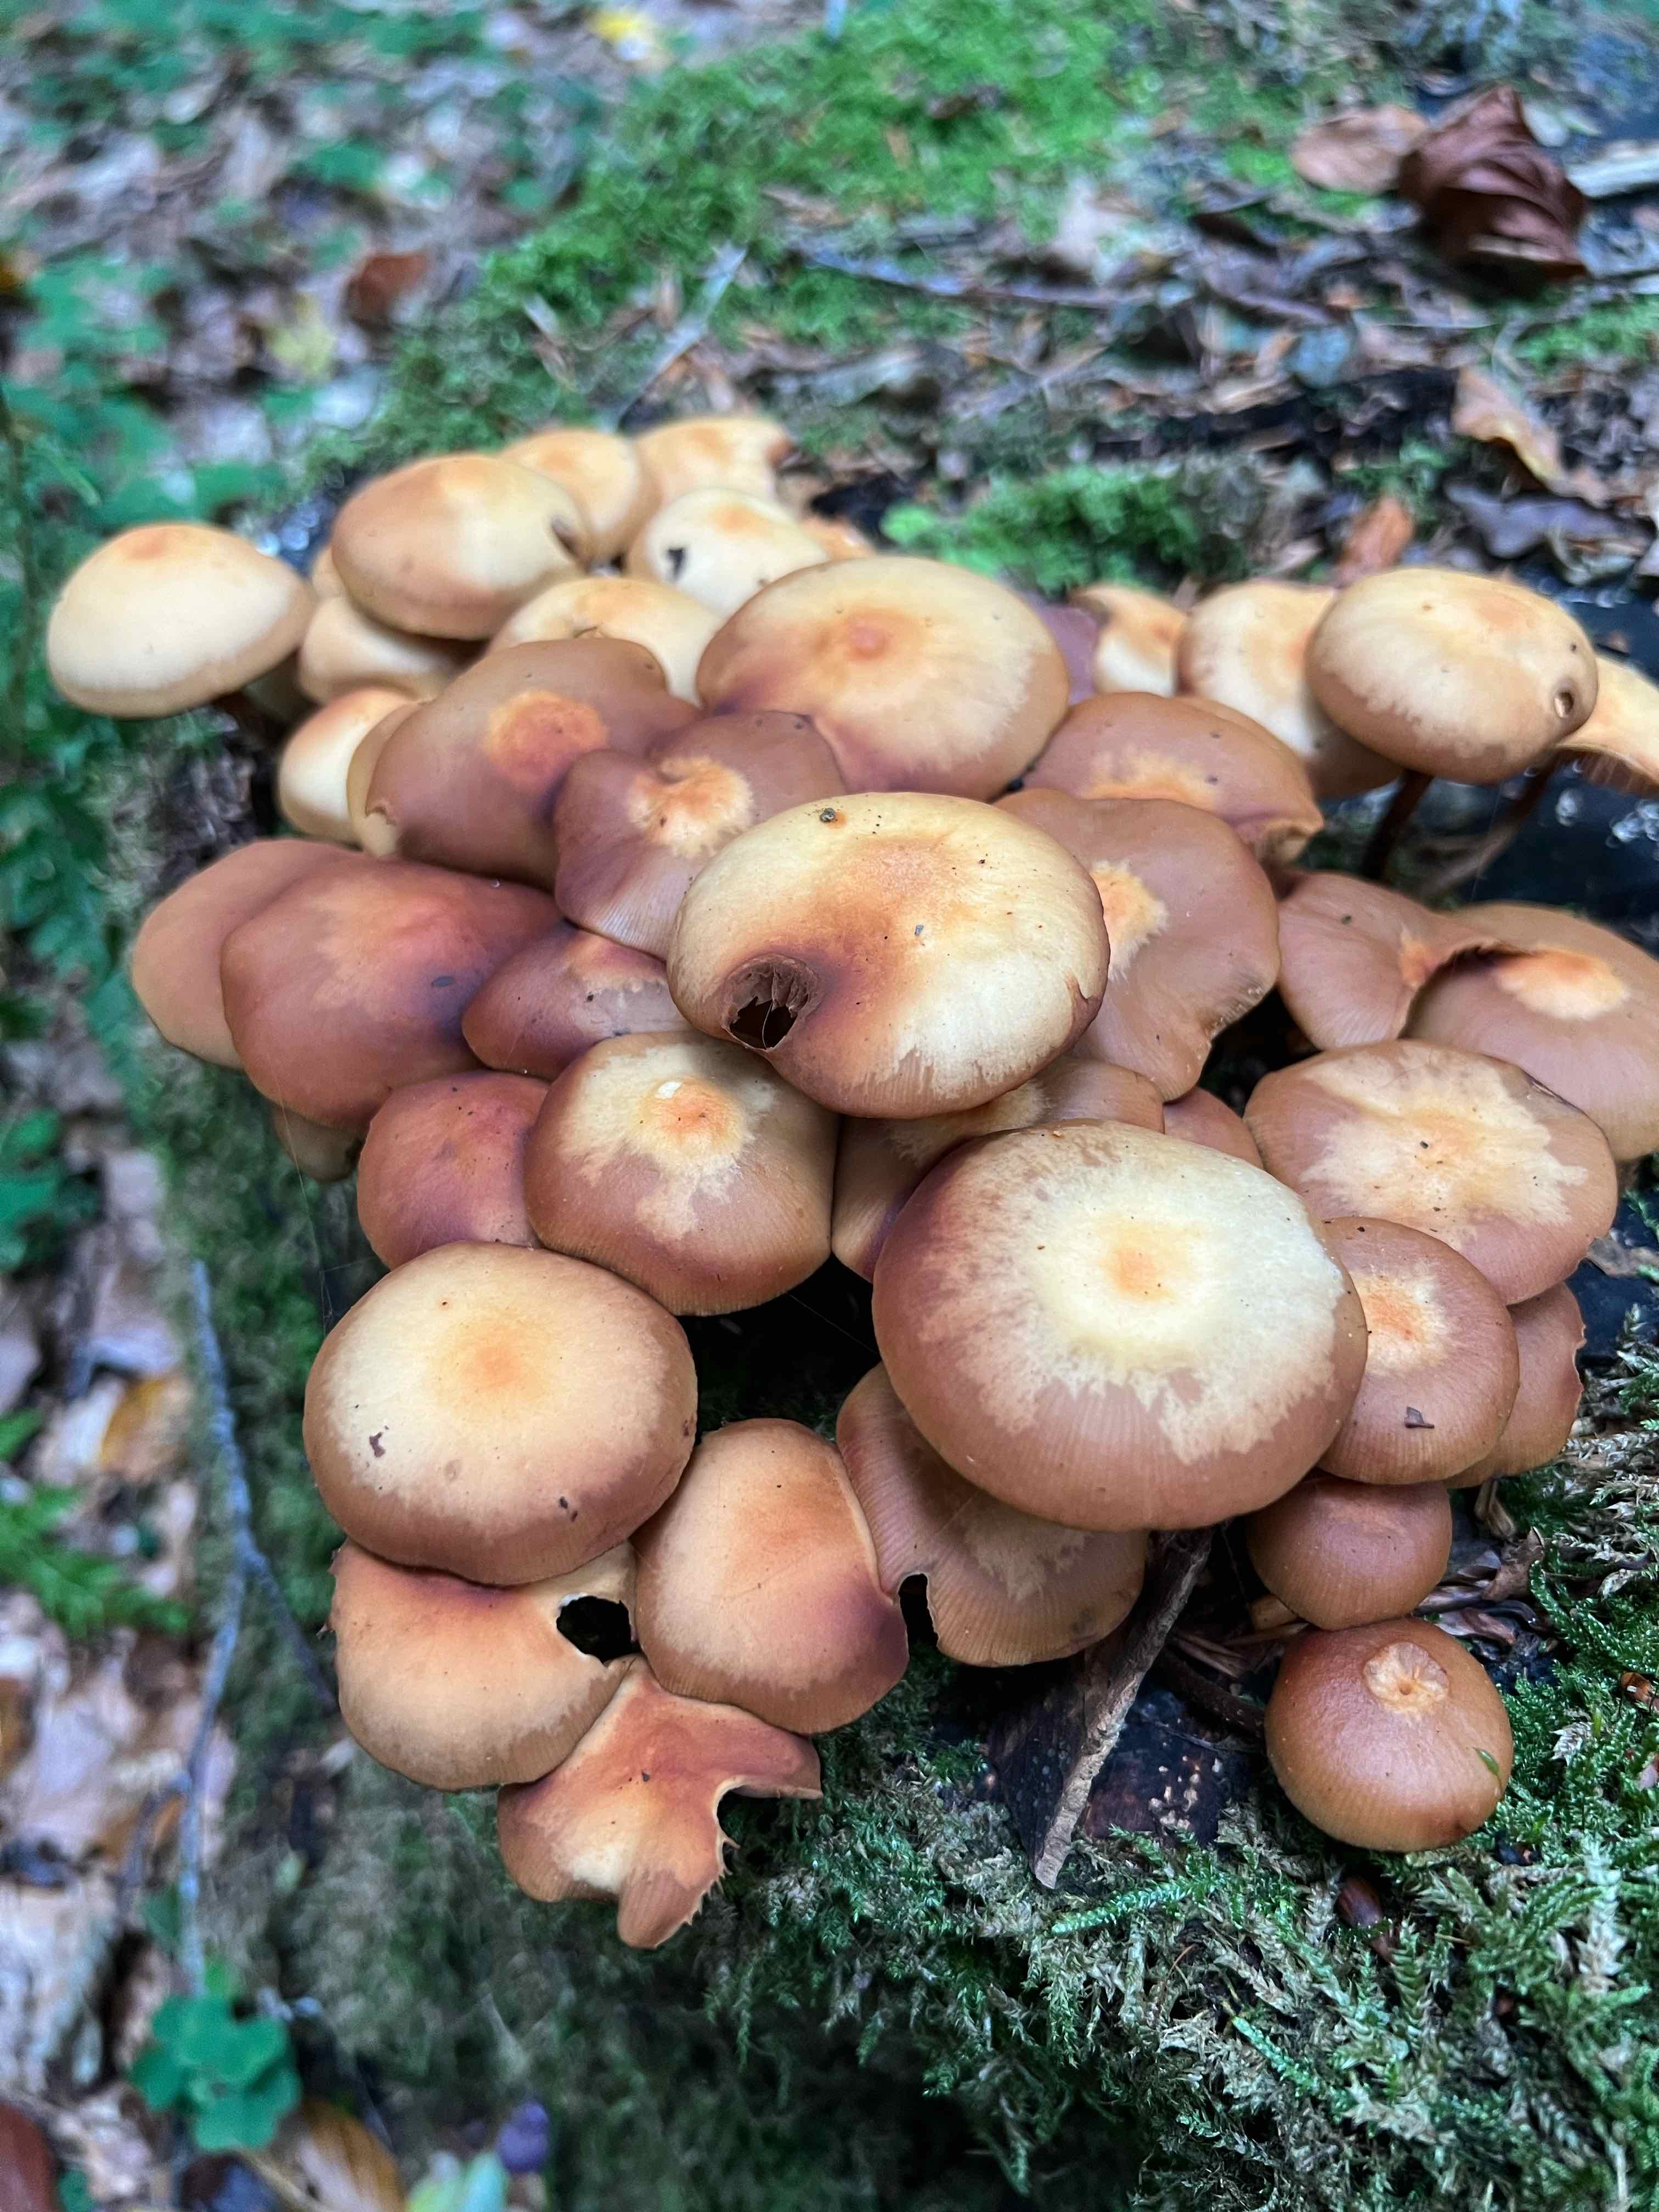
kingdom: Fungi
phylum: Basidiomycota
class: Agaricomycetes
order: Agaricales
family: Strophariaceae
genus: Kuehneromyces
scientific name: Kuehneromyces mutabilis
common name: foranderlig skælhat
